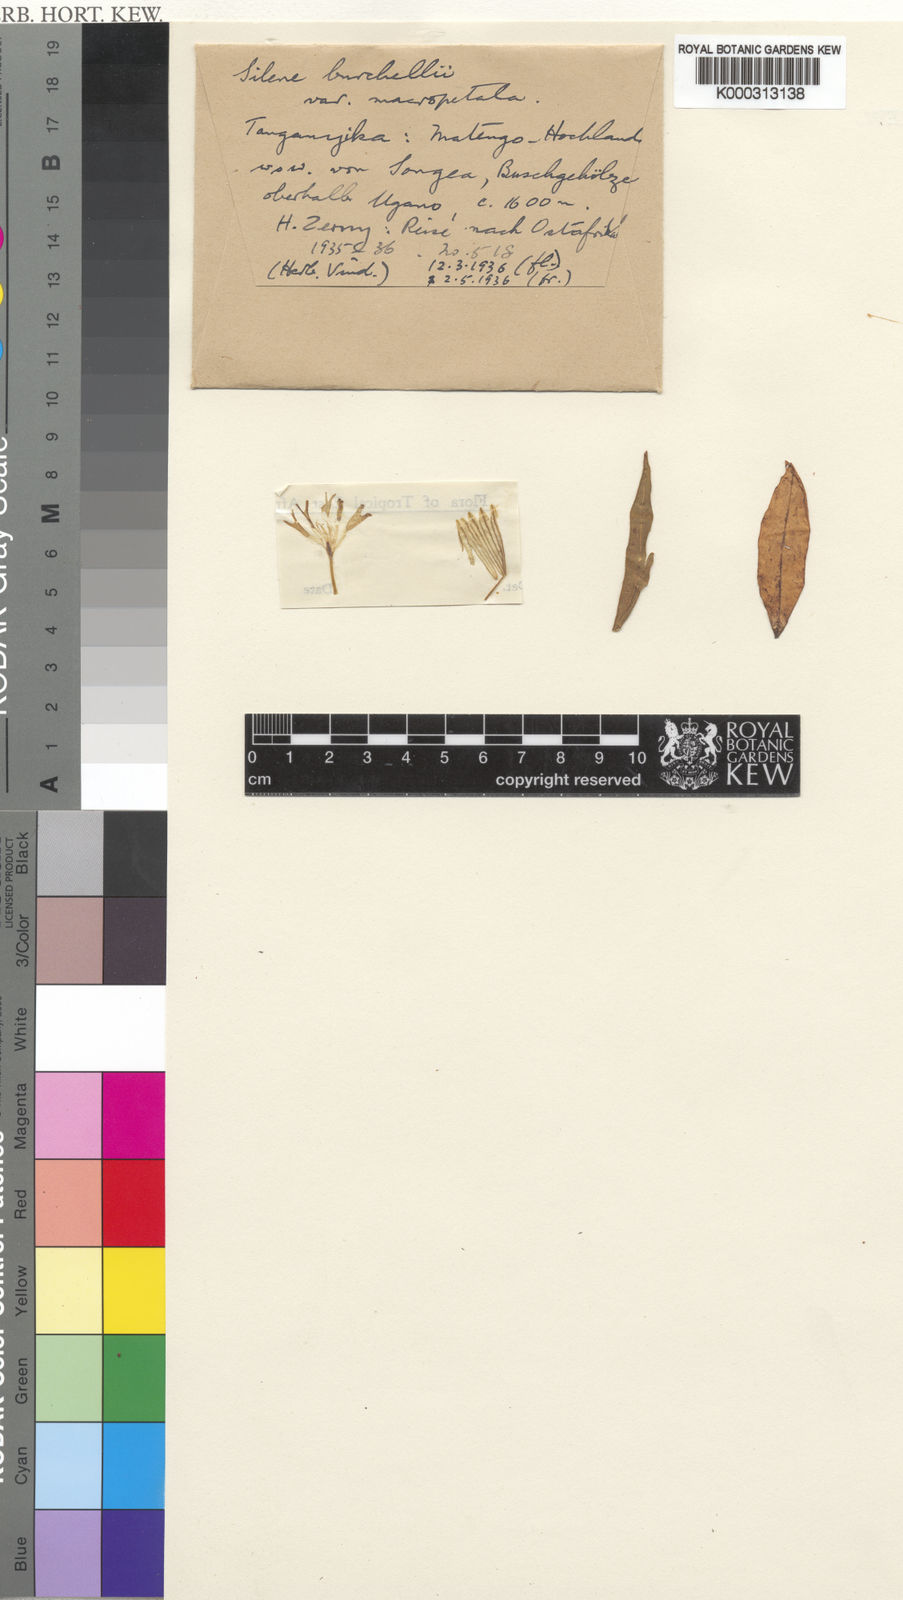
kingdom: Plantae
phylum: Tracheophyta
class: Magnoliopsida
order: Caryophyllales
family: Caryophyllaceae
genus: Silene
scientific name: Silene
